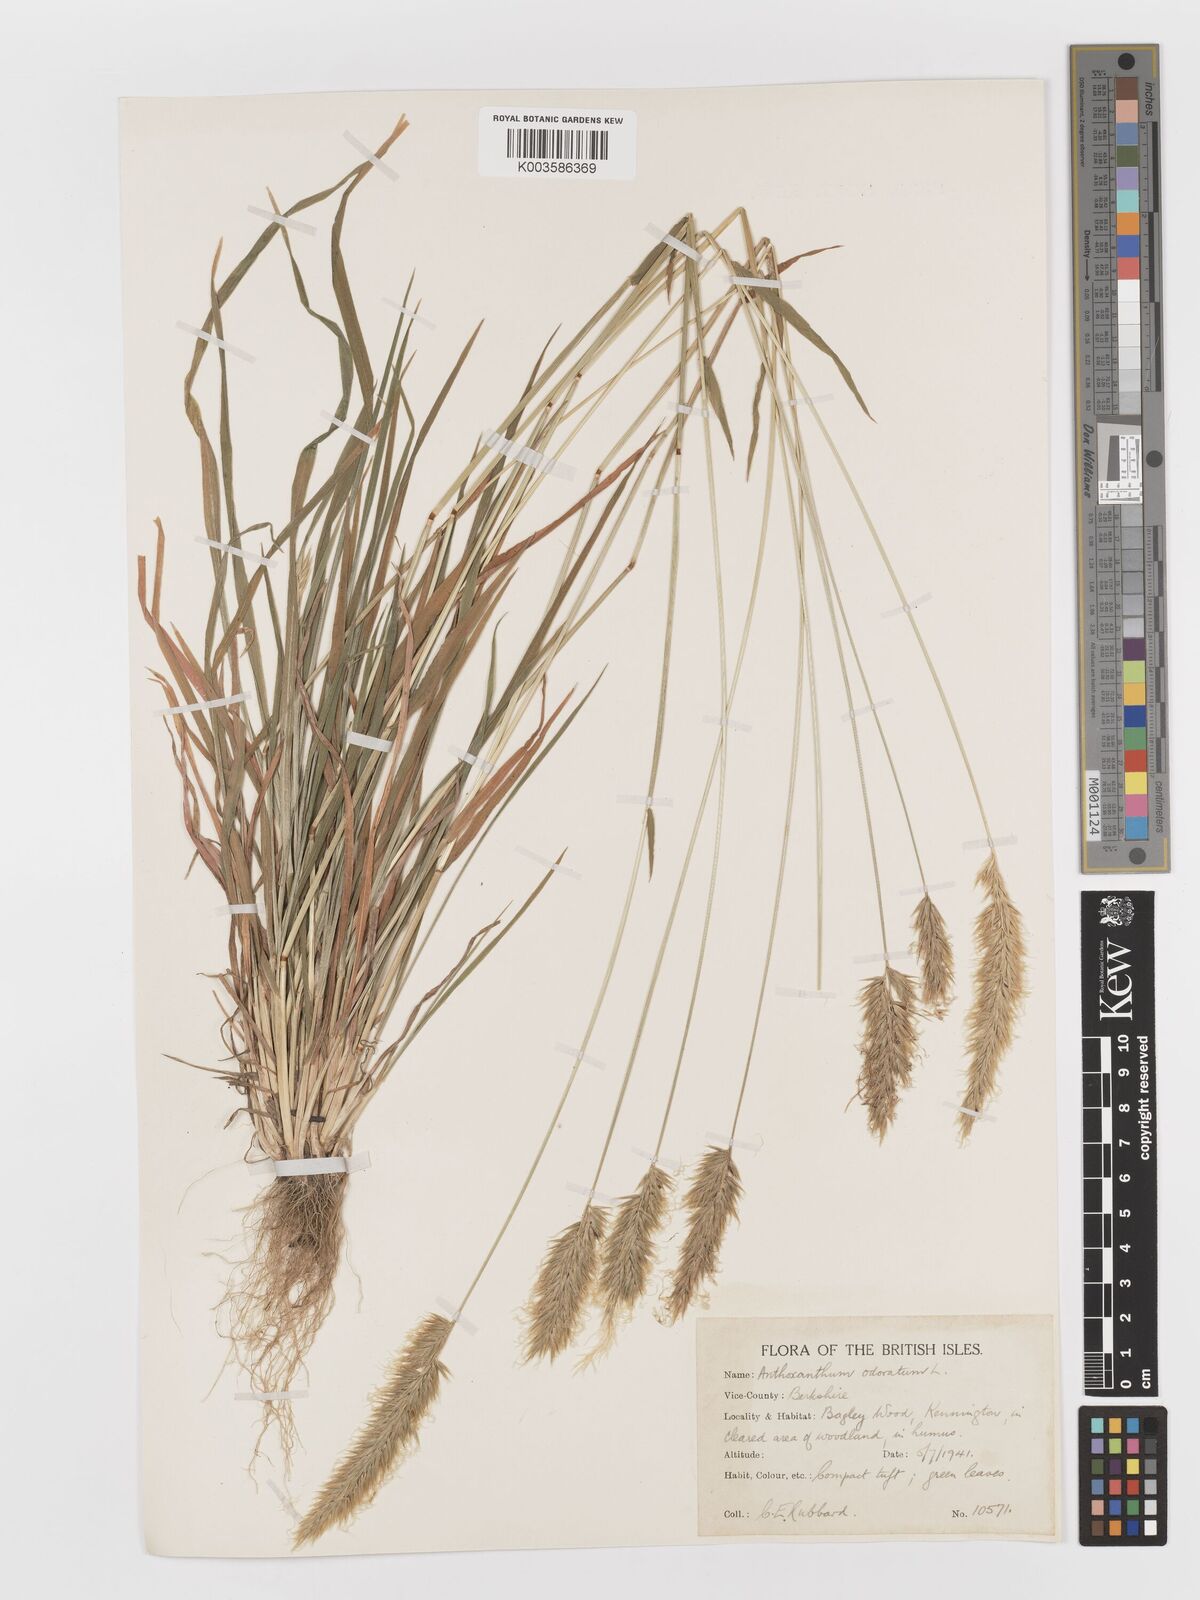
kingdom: Plantae
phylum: Tracheophyta
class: Liliopsida
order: Poales
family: Poaceae
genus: Anthoxanthum
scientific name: Anthoxanthum odoratum
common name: Sweet vernalgrass
